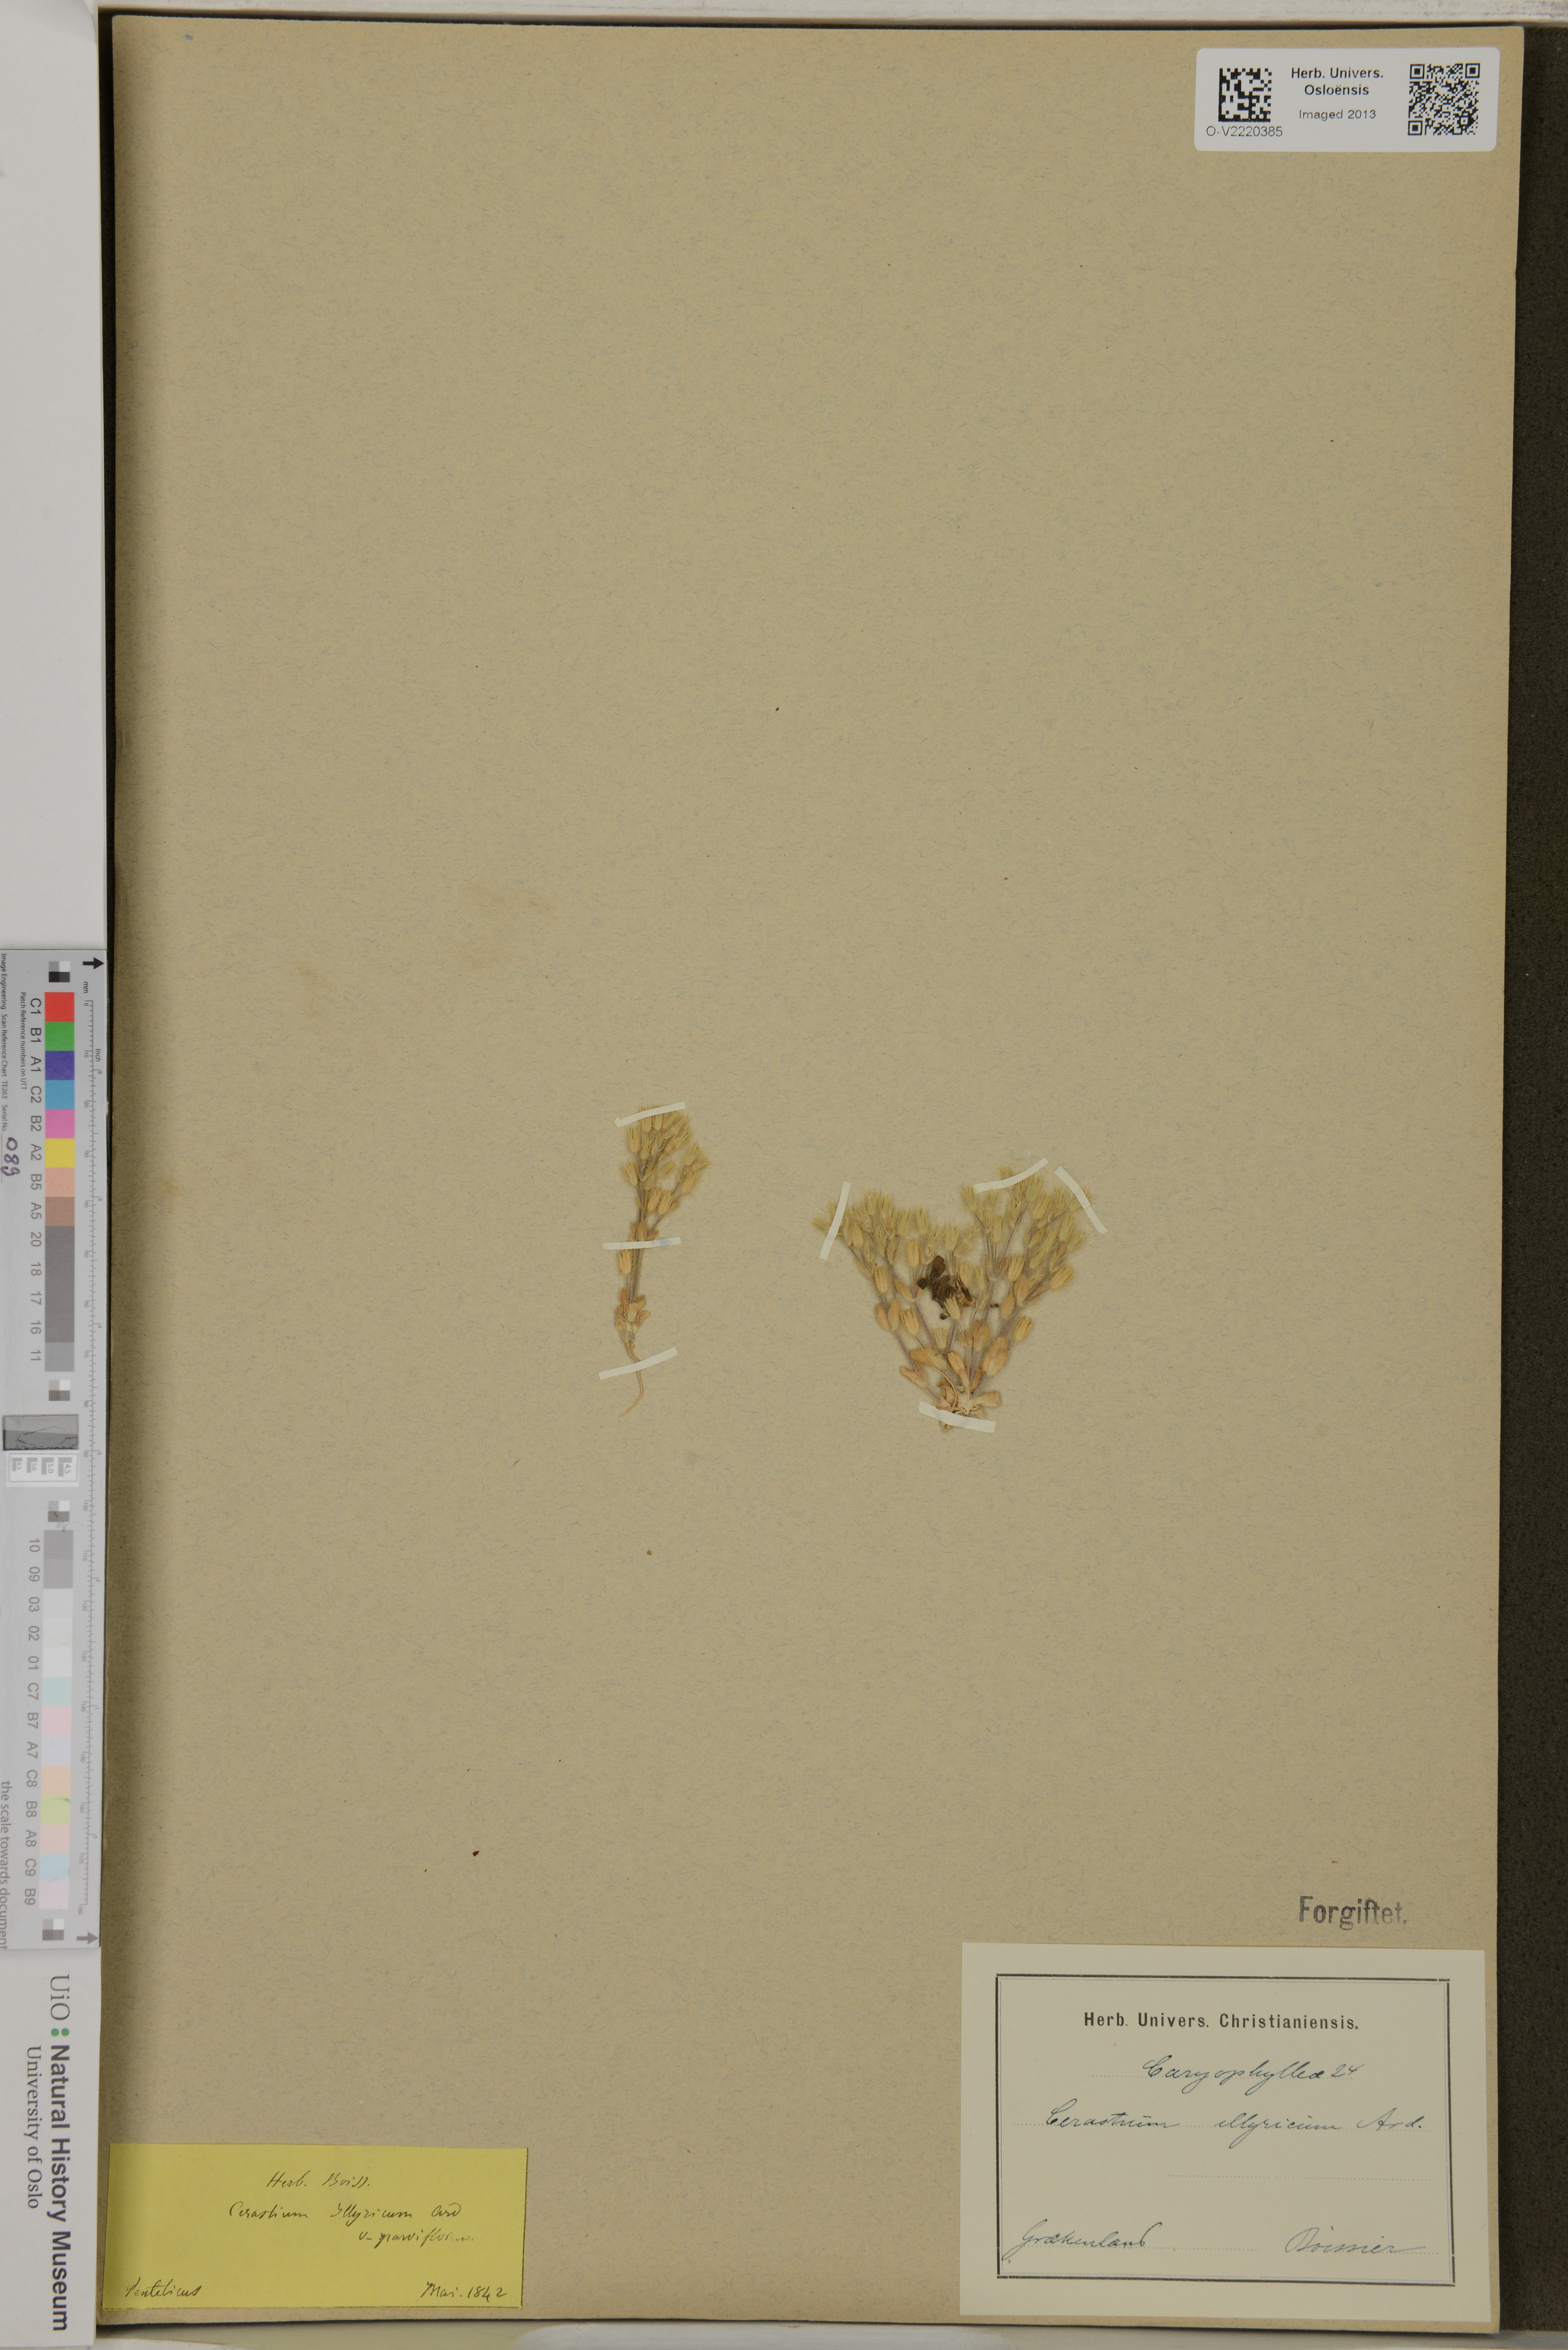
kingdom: Plantae
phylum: Tracheophyta
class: Magnoliopsida
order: Caryophyllales
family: Caryophyllaceae
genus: Cerastium
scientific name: Cerastium illyricum
